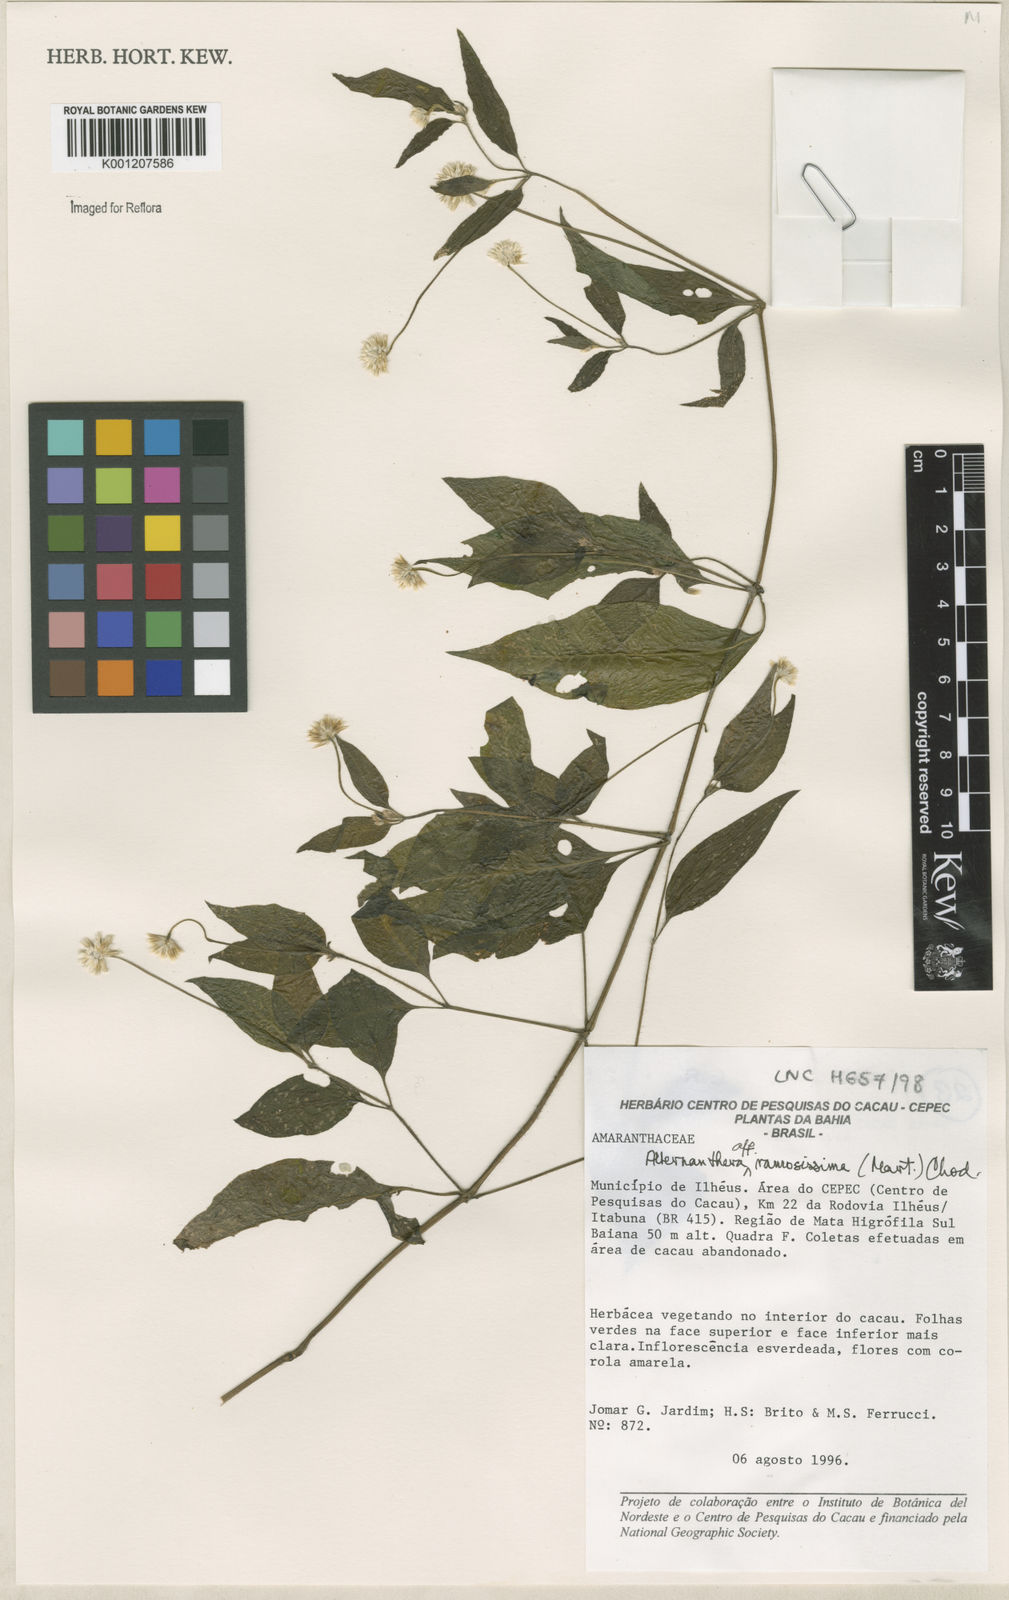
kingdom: Plantae
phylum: Tracheophyta
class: Magnoliopsida
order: Caryophyllales
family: Amaranthaceae
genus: Alternanthera
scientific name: Alternanthera ramosissima
